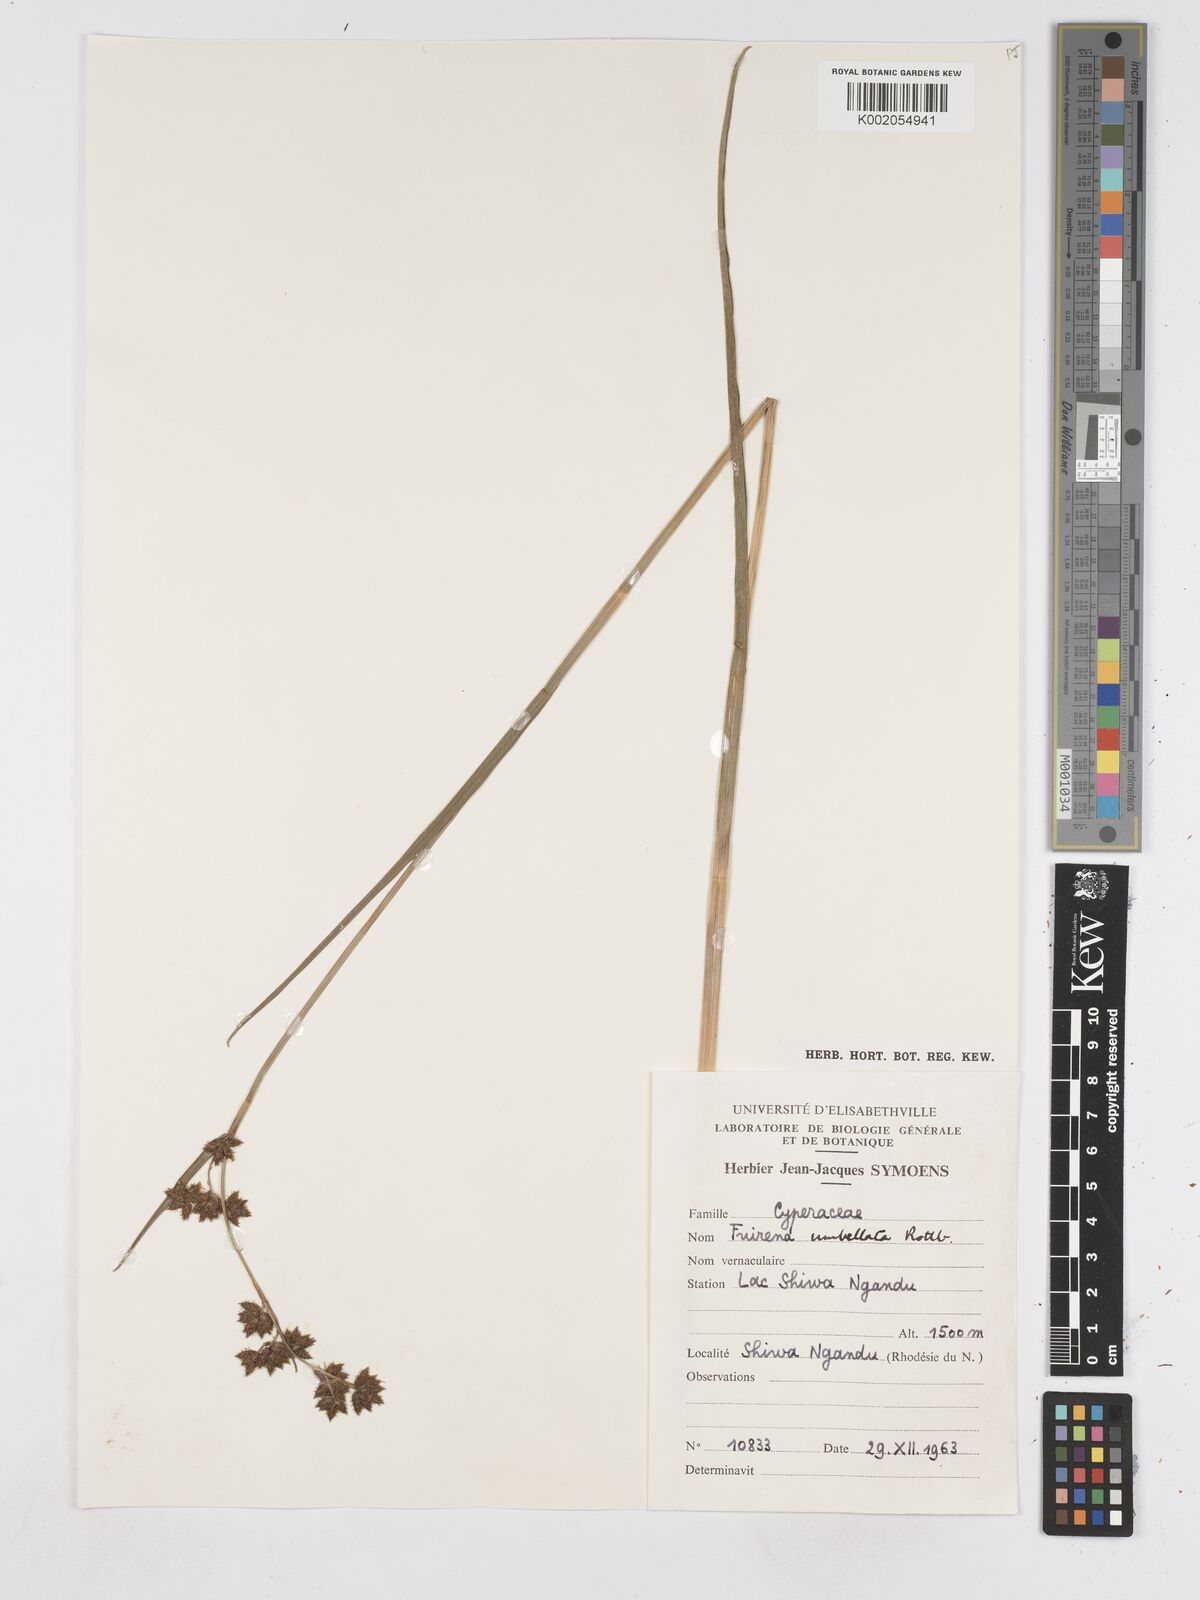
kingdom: Plantae
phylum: Tracheophyta
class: Liliopsida
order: Poales
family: Cyperaceae
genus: Fuirena
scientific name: Fuirena umbellata
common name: Yefen
